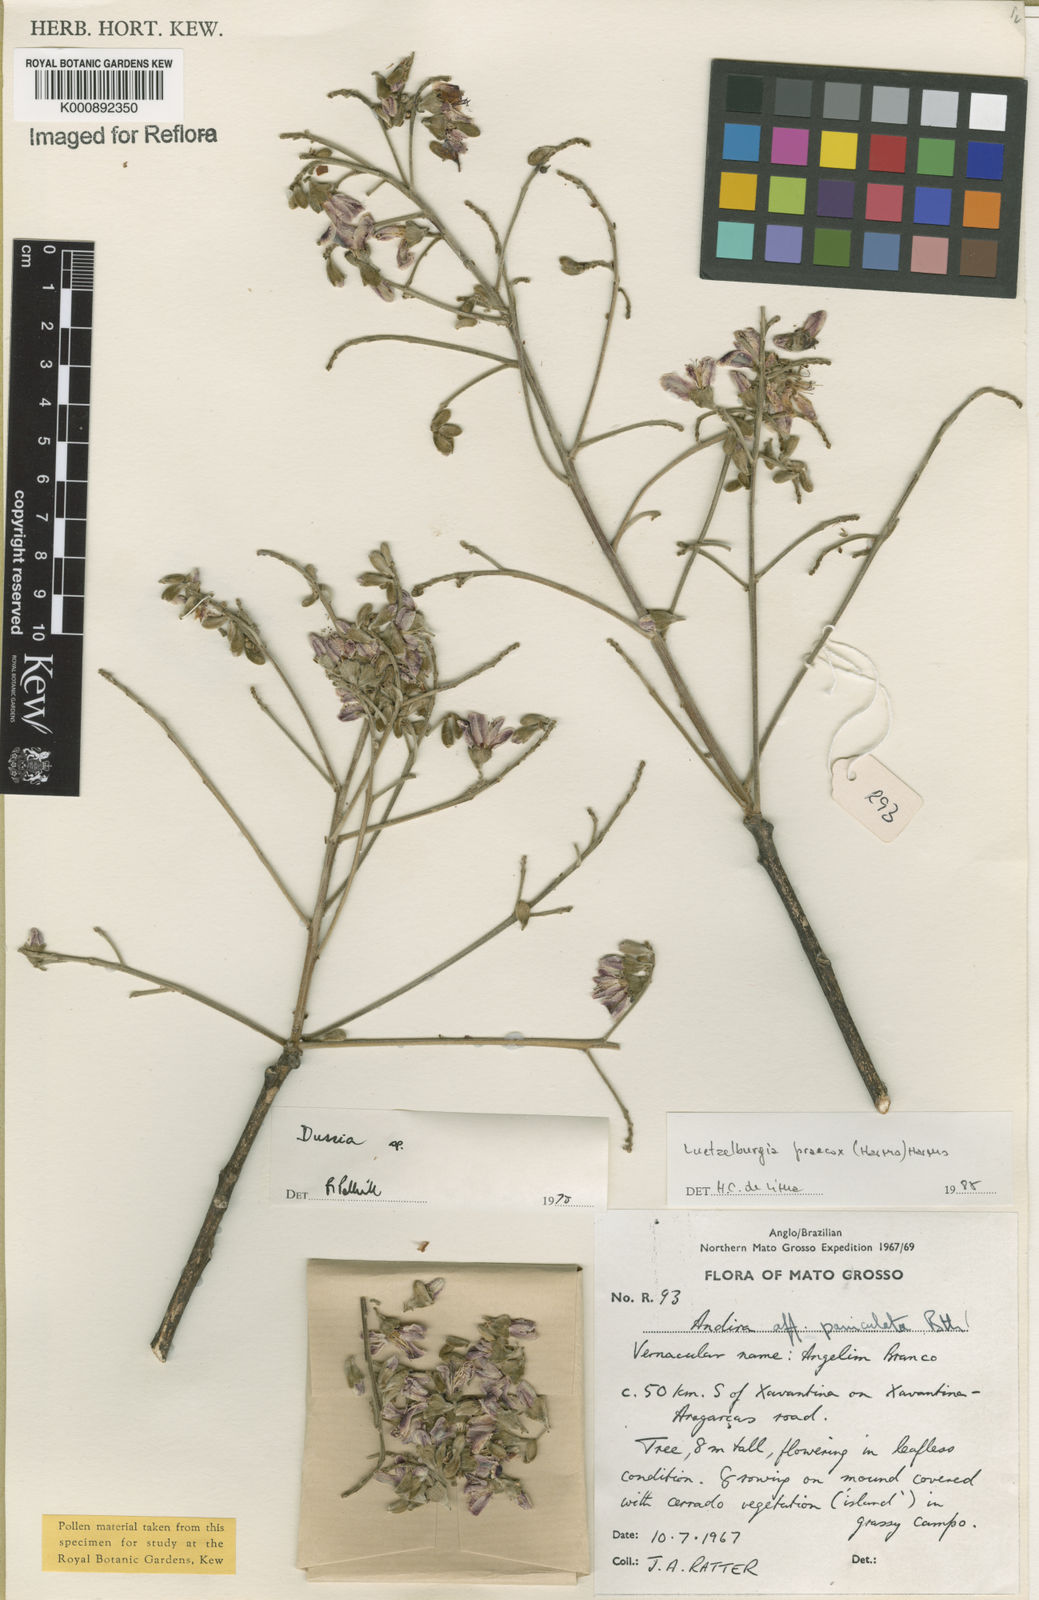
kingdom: Plantae
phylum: Tracheophyta
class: Magnoliopsida
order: Fabales
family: Fabaceae
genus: Luetzelburgia
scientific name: Luetzelburgia praecox
